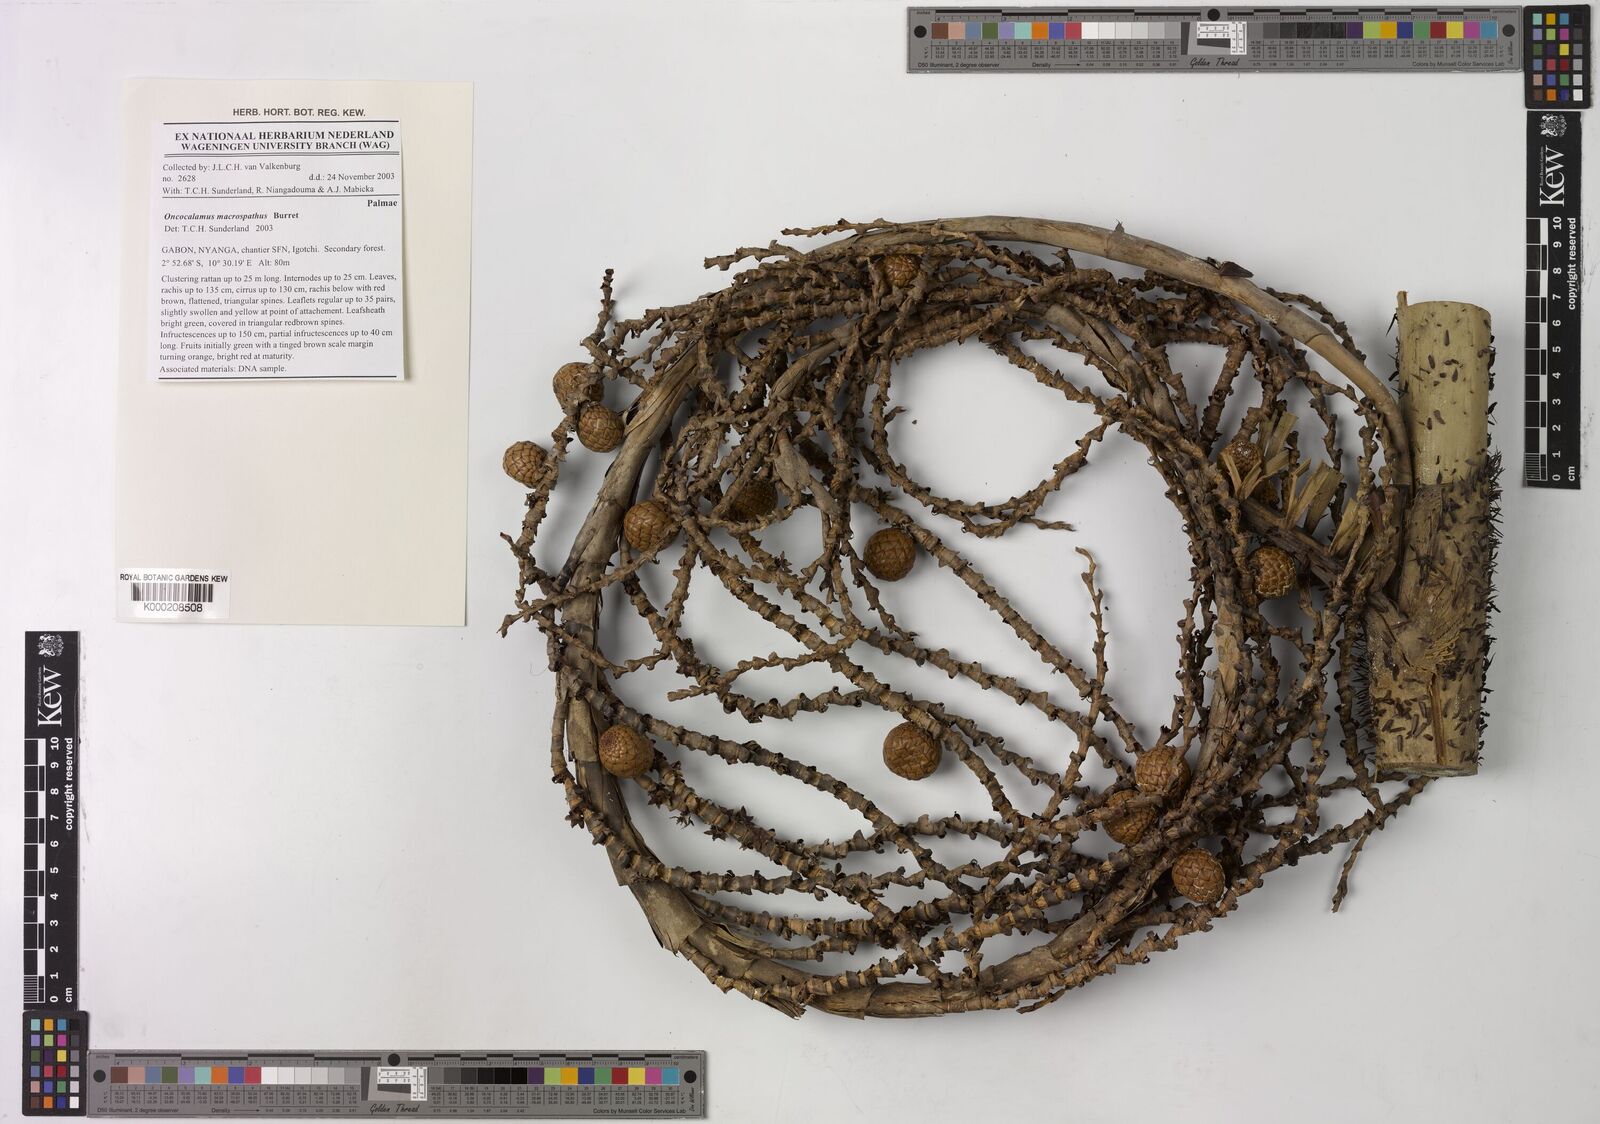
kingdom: Plantae
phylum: Tracheophyta
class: Liliopsida
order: Arecales
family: Arecaceae
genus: Oncocalamus
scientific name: Oncocalamus macrospathus
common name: Rattan
